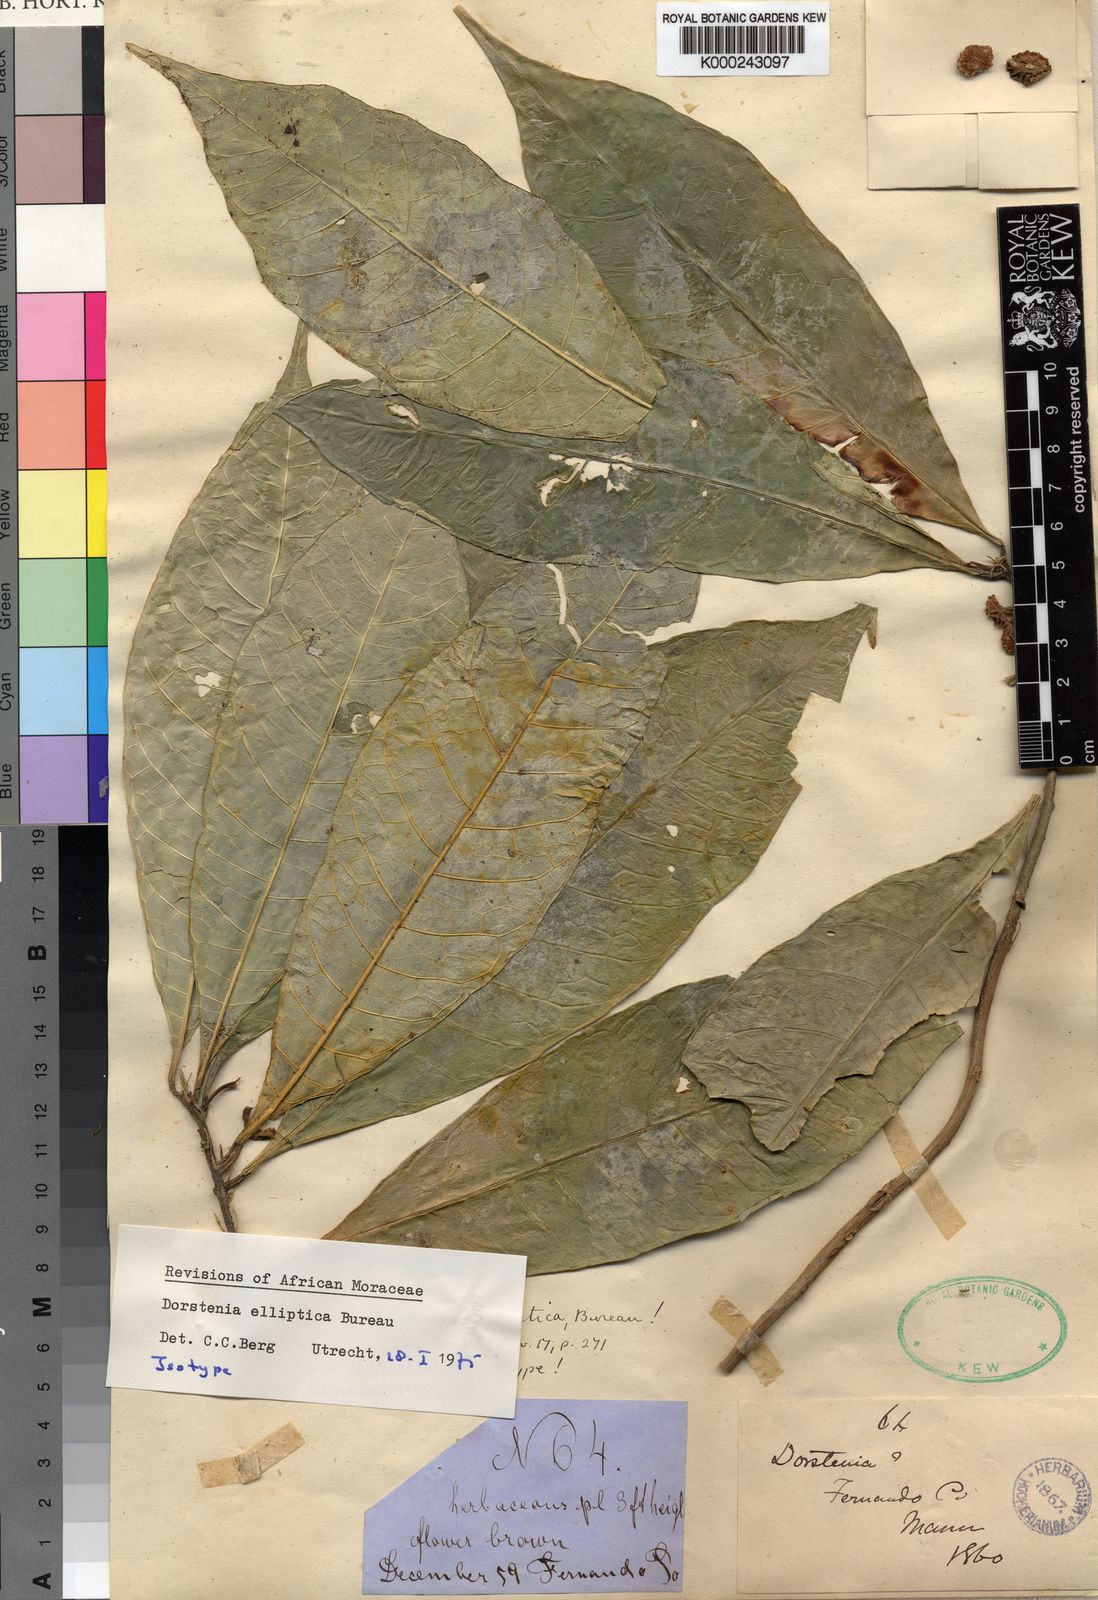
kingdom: Plantae
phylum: Tracheophyta
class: Magnoliopsida
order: Rosales
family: Moraceae
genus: Dorstenia
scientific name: Dorstenia elliptica
